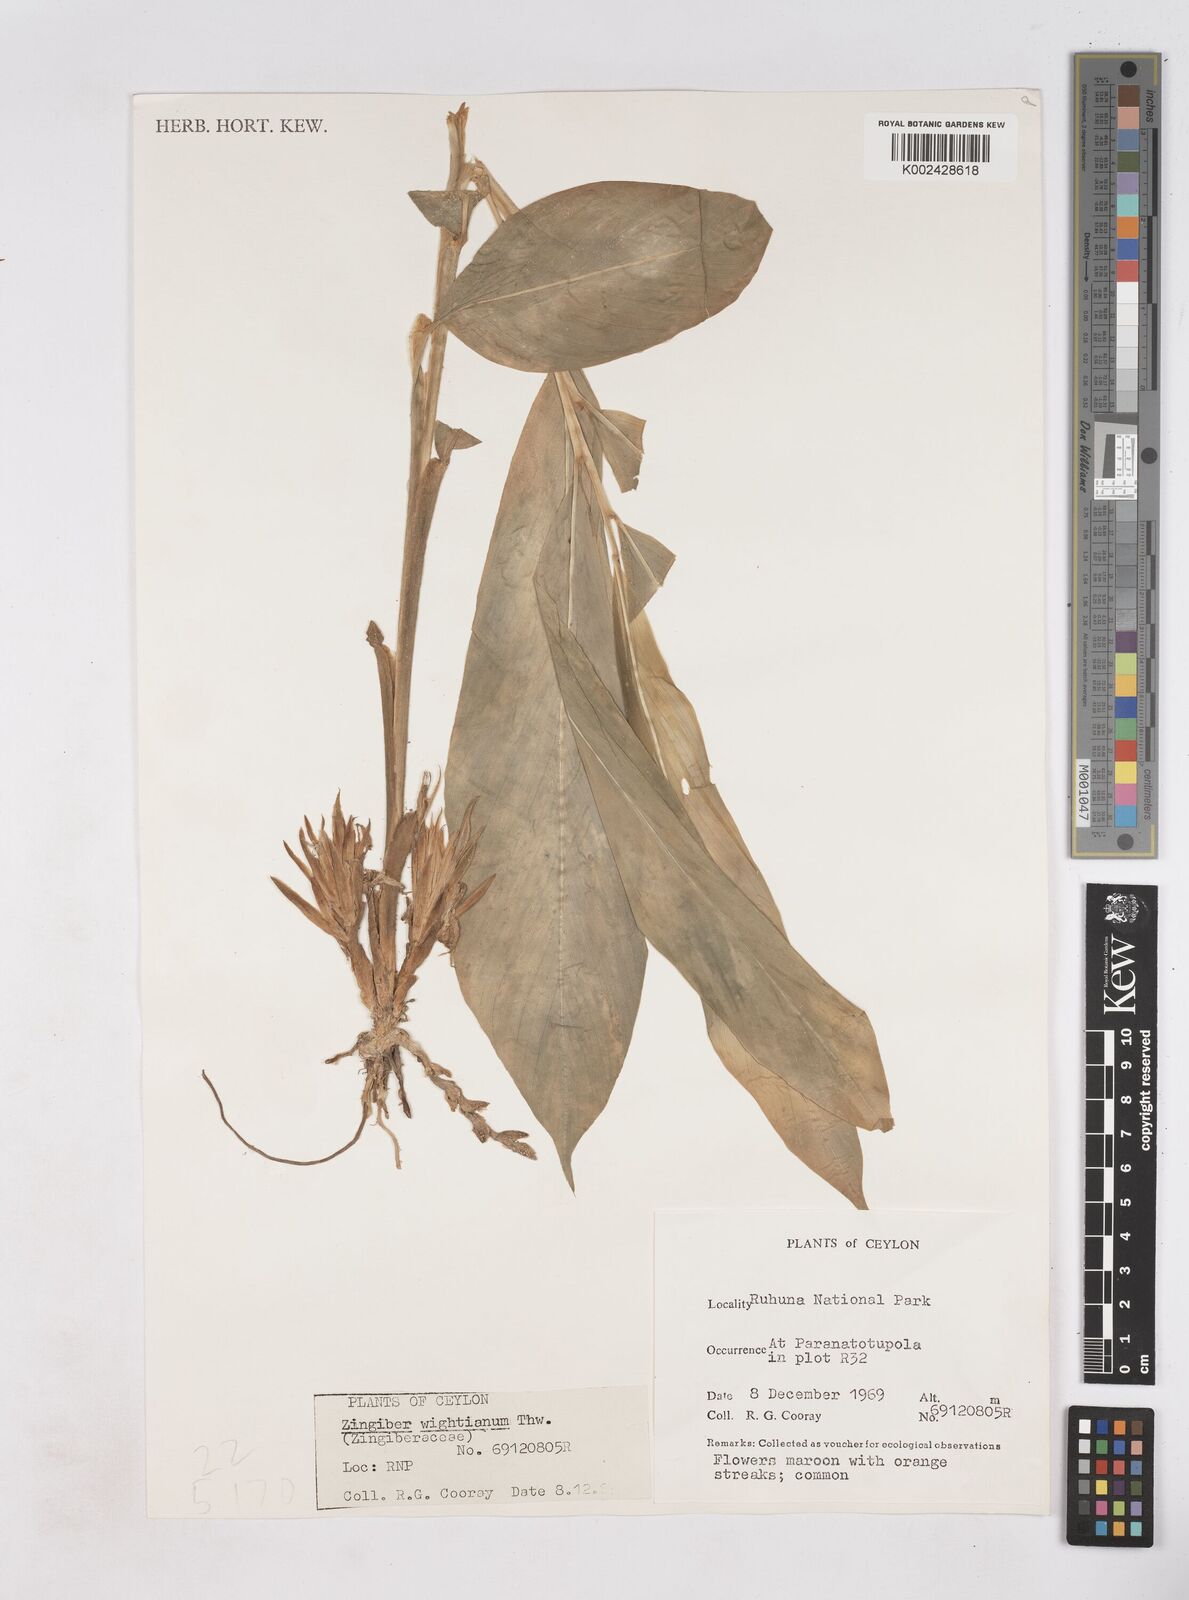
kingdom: Plantae
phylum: Tracheophyta
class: Liliopsida
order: Zingiberales
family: Zingiberaceae
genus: Zingiber
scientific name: Zingiber wightianum
